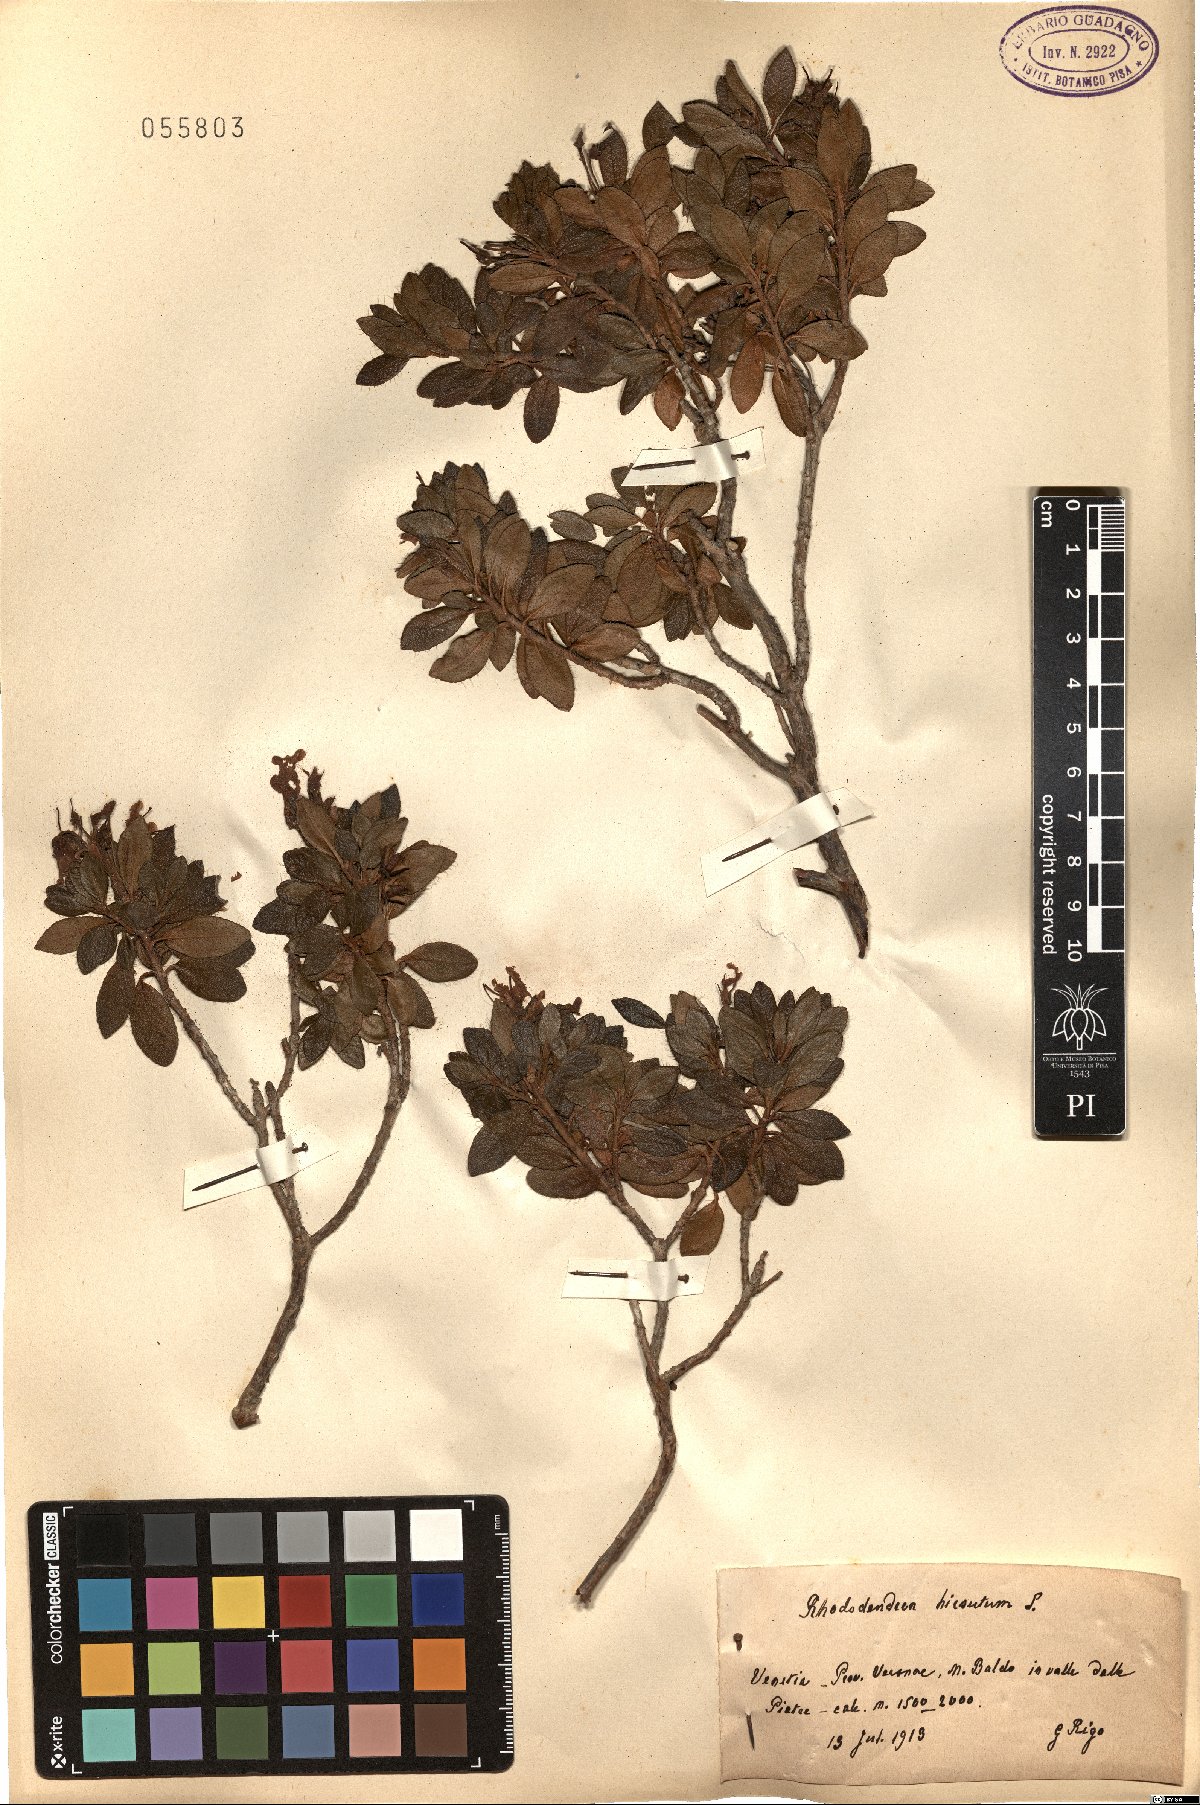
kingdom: Plantae
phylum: Tracheophyta
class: Magnoliopsida
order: Ericales
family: Ericaceae
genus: Rhododendron
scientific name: Rhododendron hirsutum
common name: Hairy alpenrose
